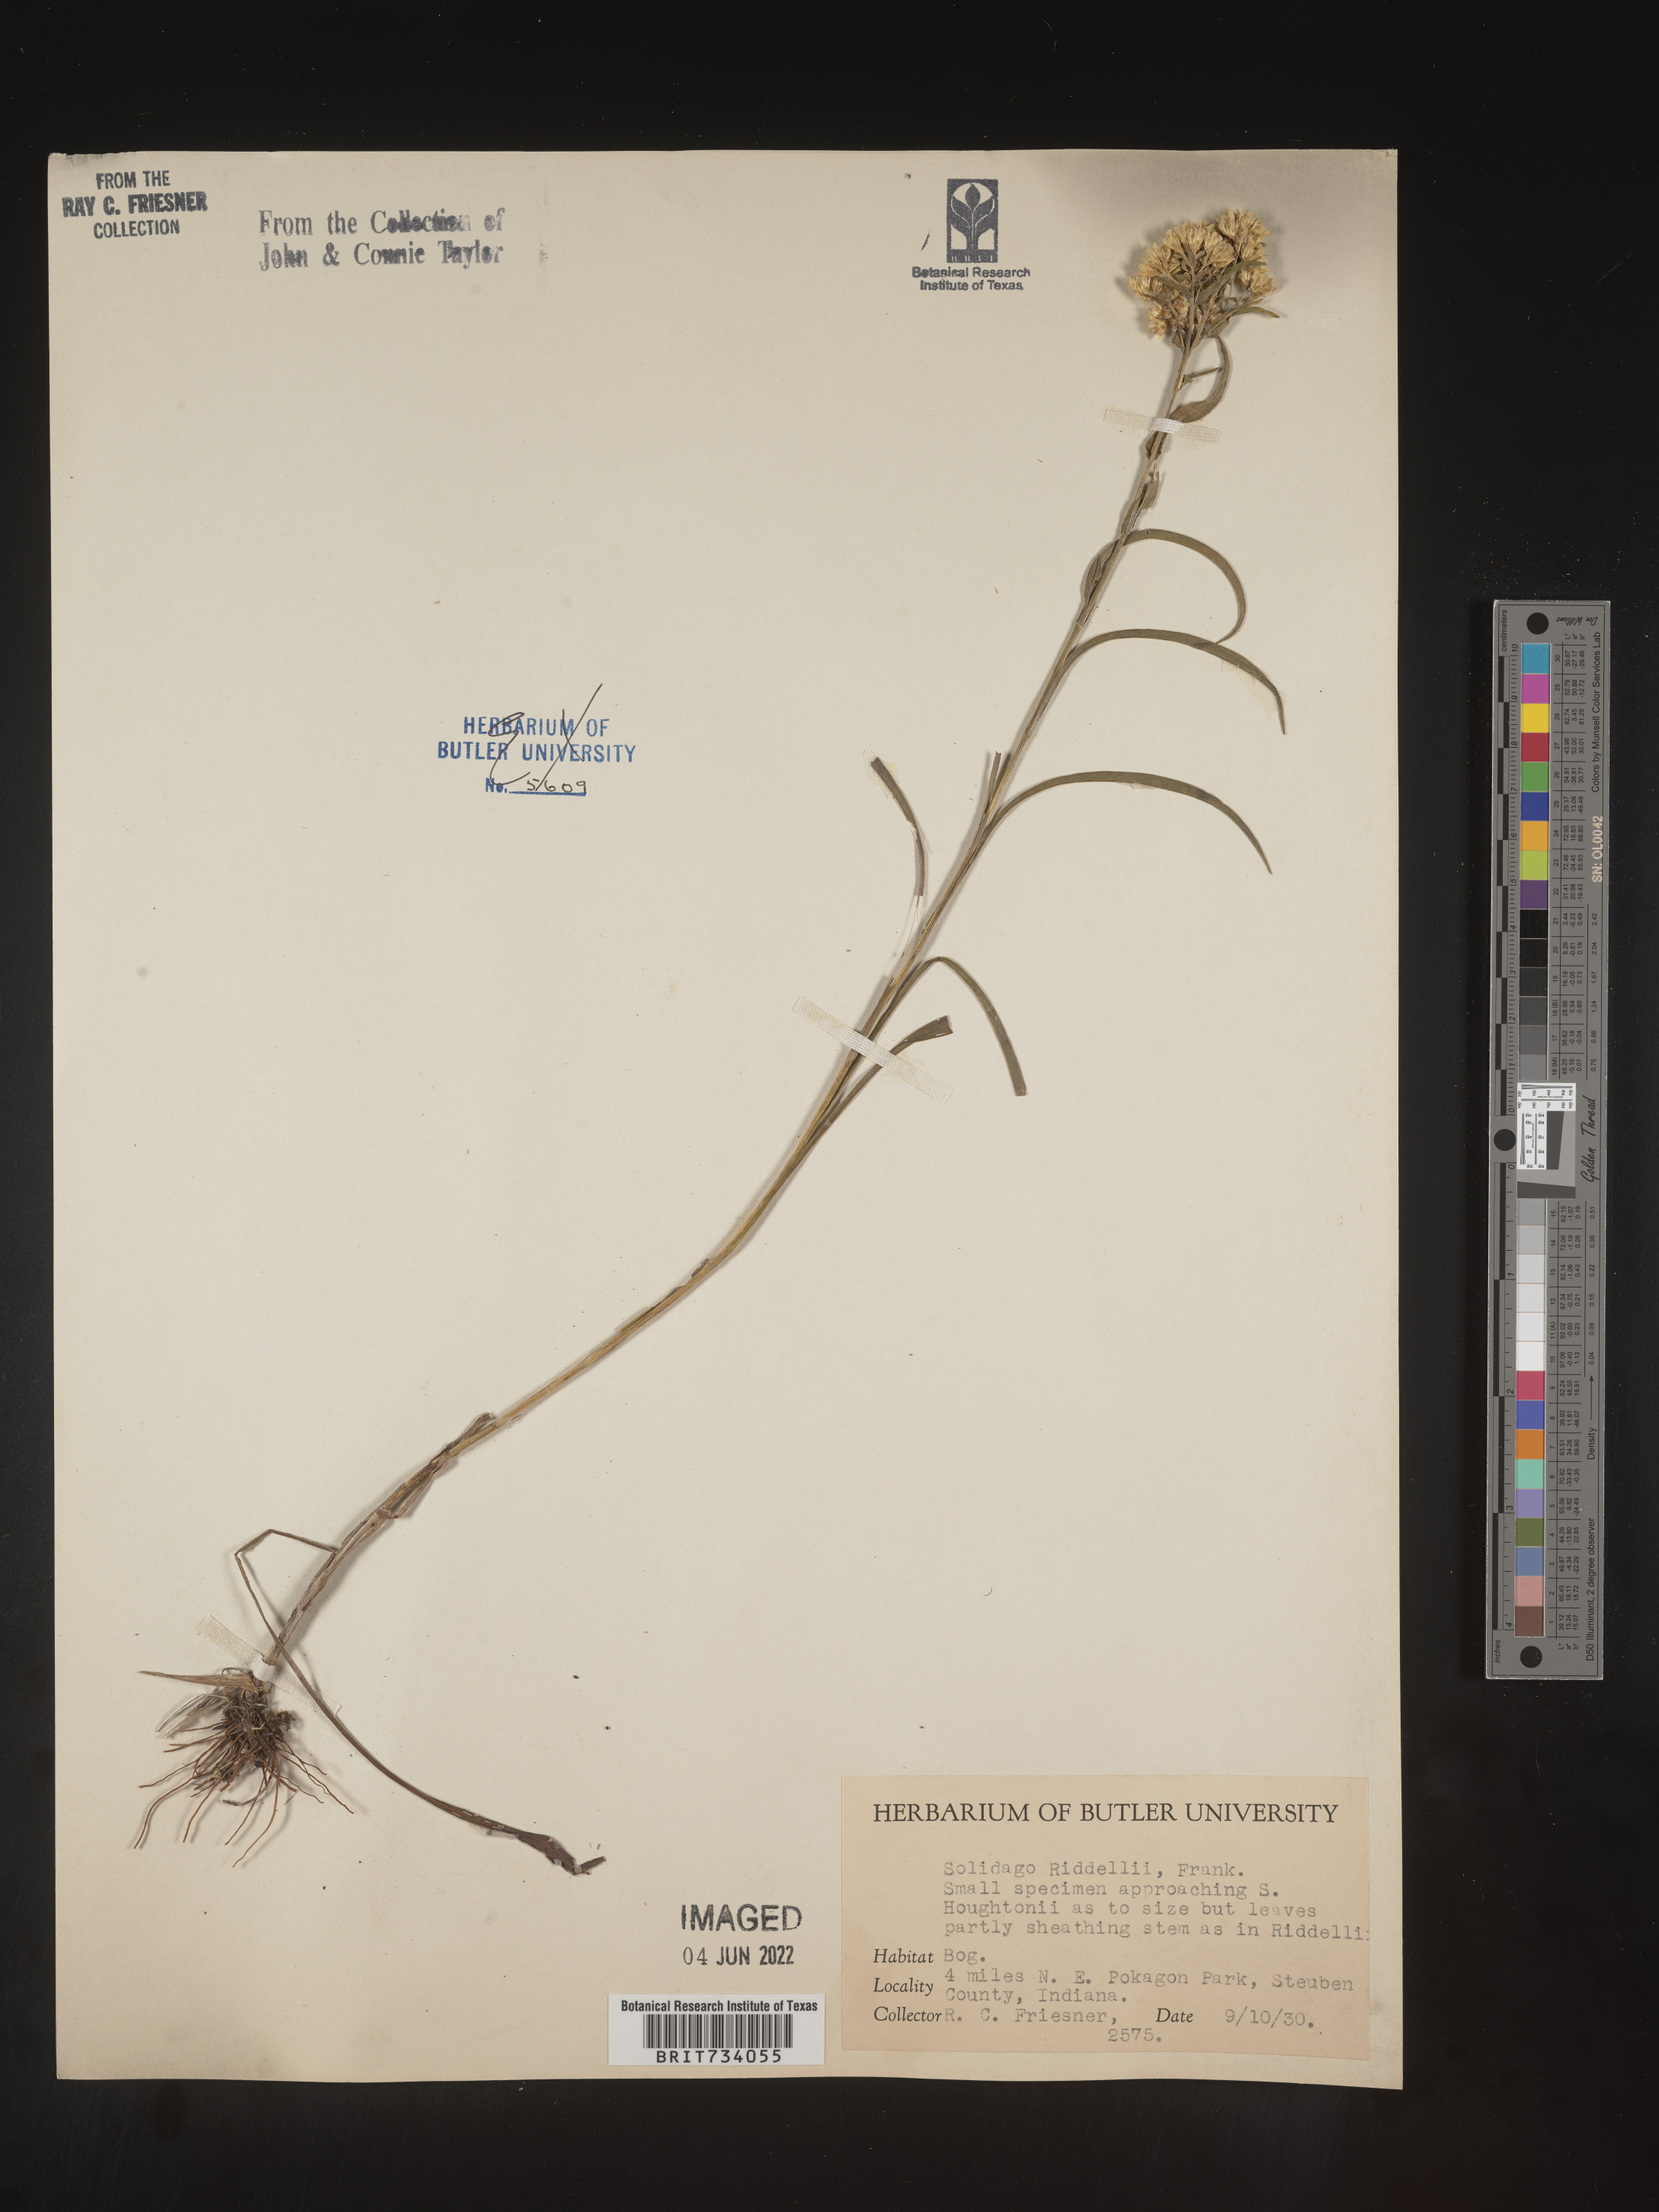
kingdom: Plantae
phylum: Tracheophyta
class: Magnoliopsida
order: Asterales
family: Asteraceae
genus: Solidago
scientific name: Solidago riddellii
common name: Riddell's goldenrod
